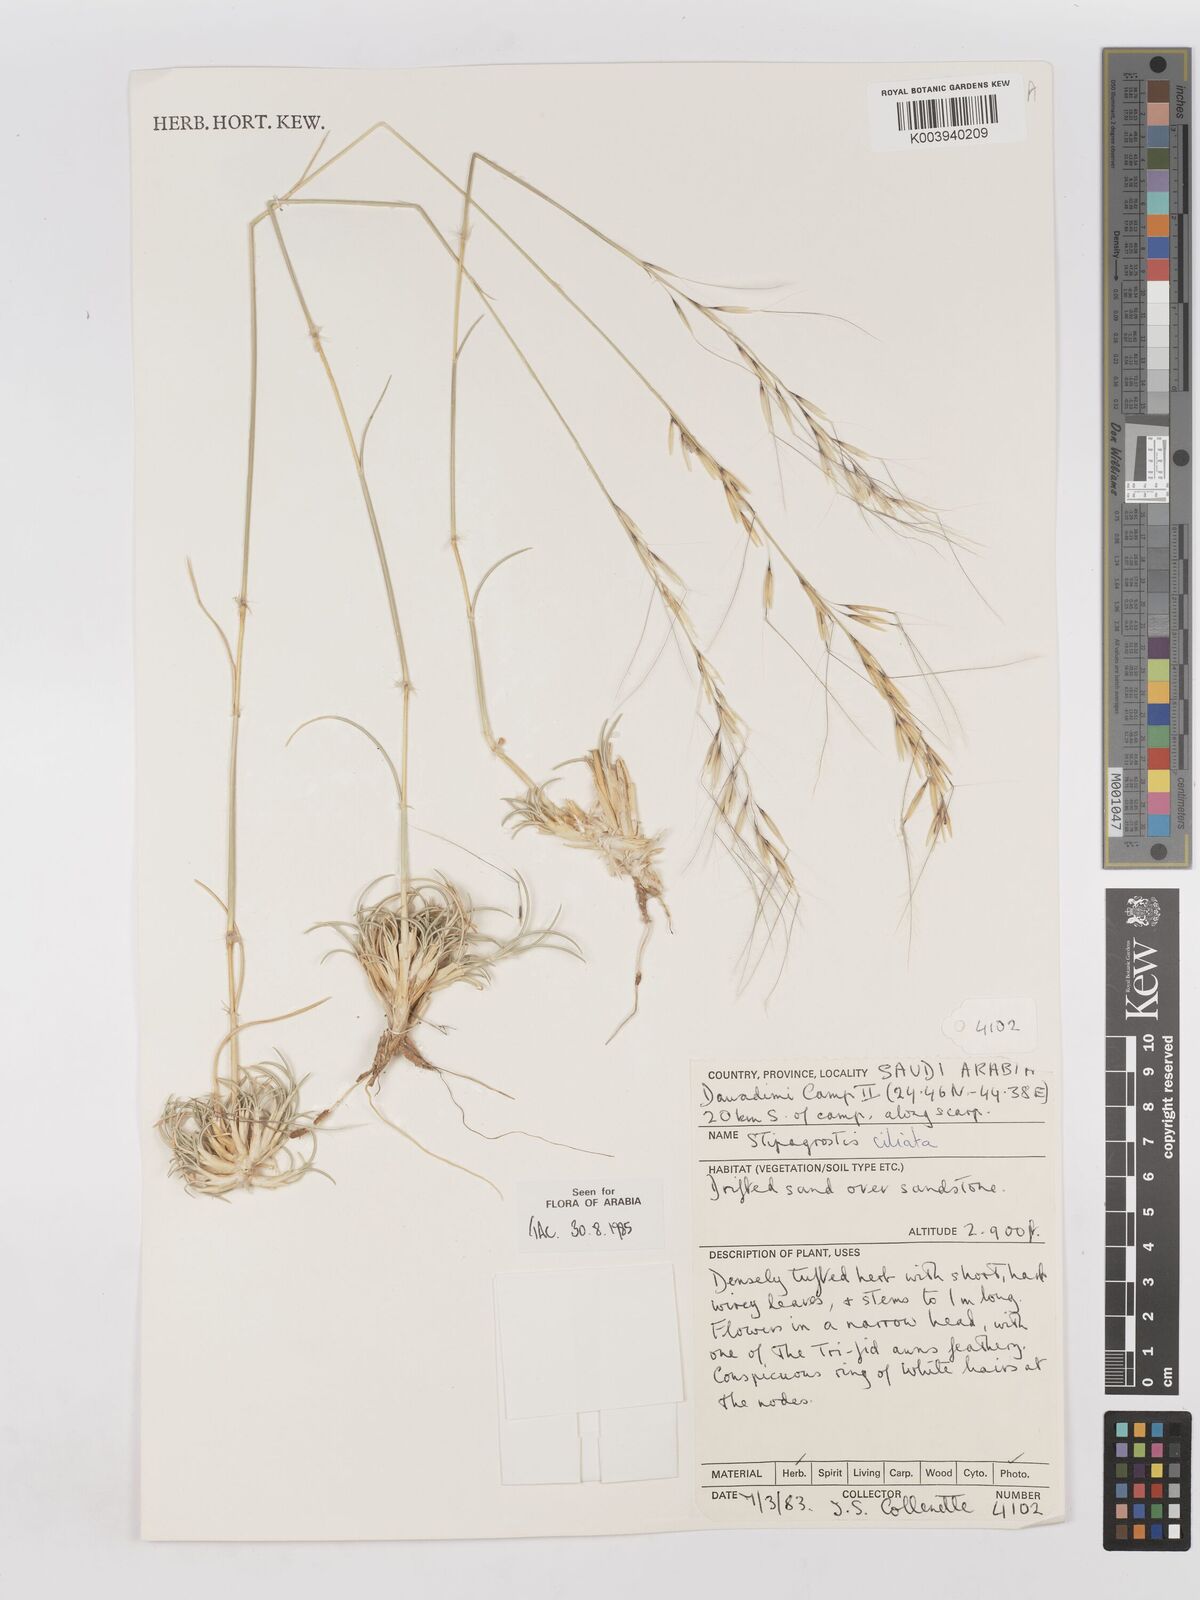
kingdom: Plantae
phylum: Tracheophyta
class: Liliopsida
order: Poales
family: Poaceae
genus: Stipagrostis
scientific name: Stipagrostis ciliata
